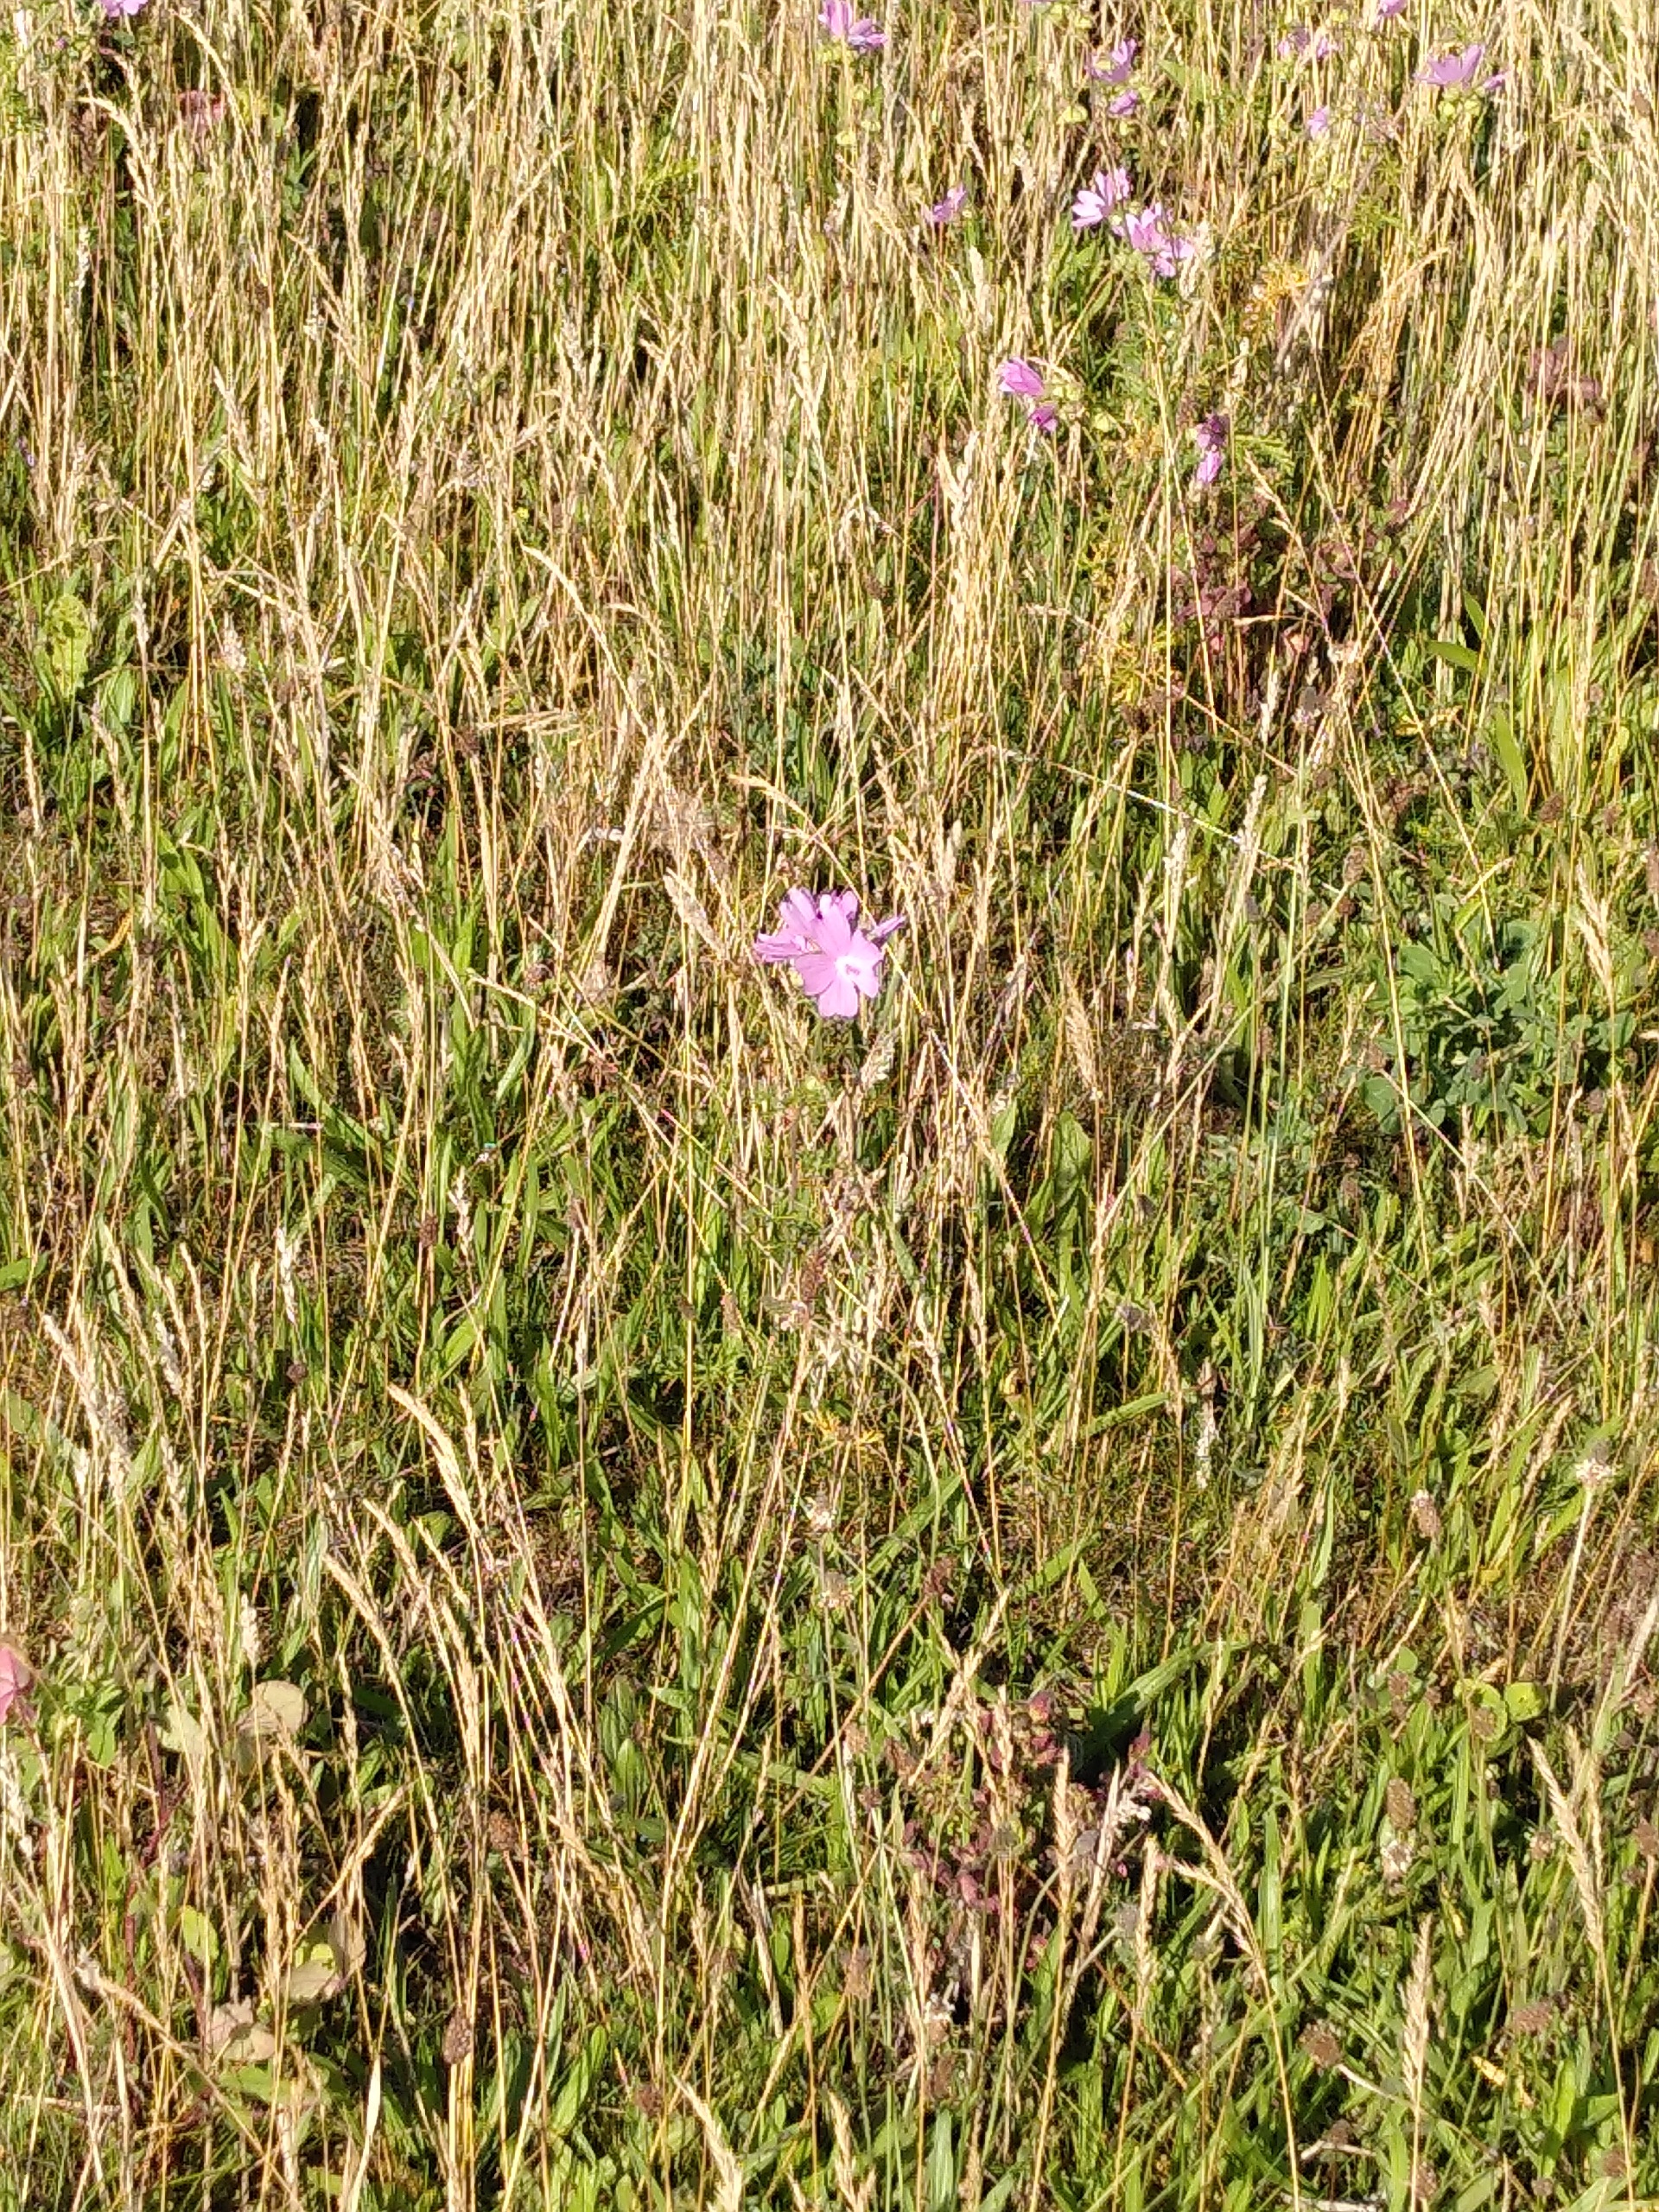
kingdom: Plantae
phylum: Tracheophyta
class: Magnoliopsida
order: Malvales
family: Malvaceae
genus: Malva
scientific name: Malva
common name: Katostslægten
